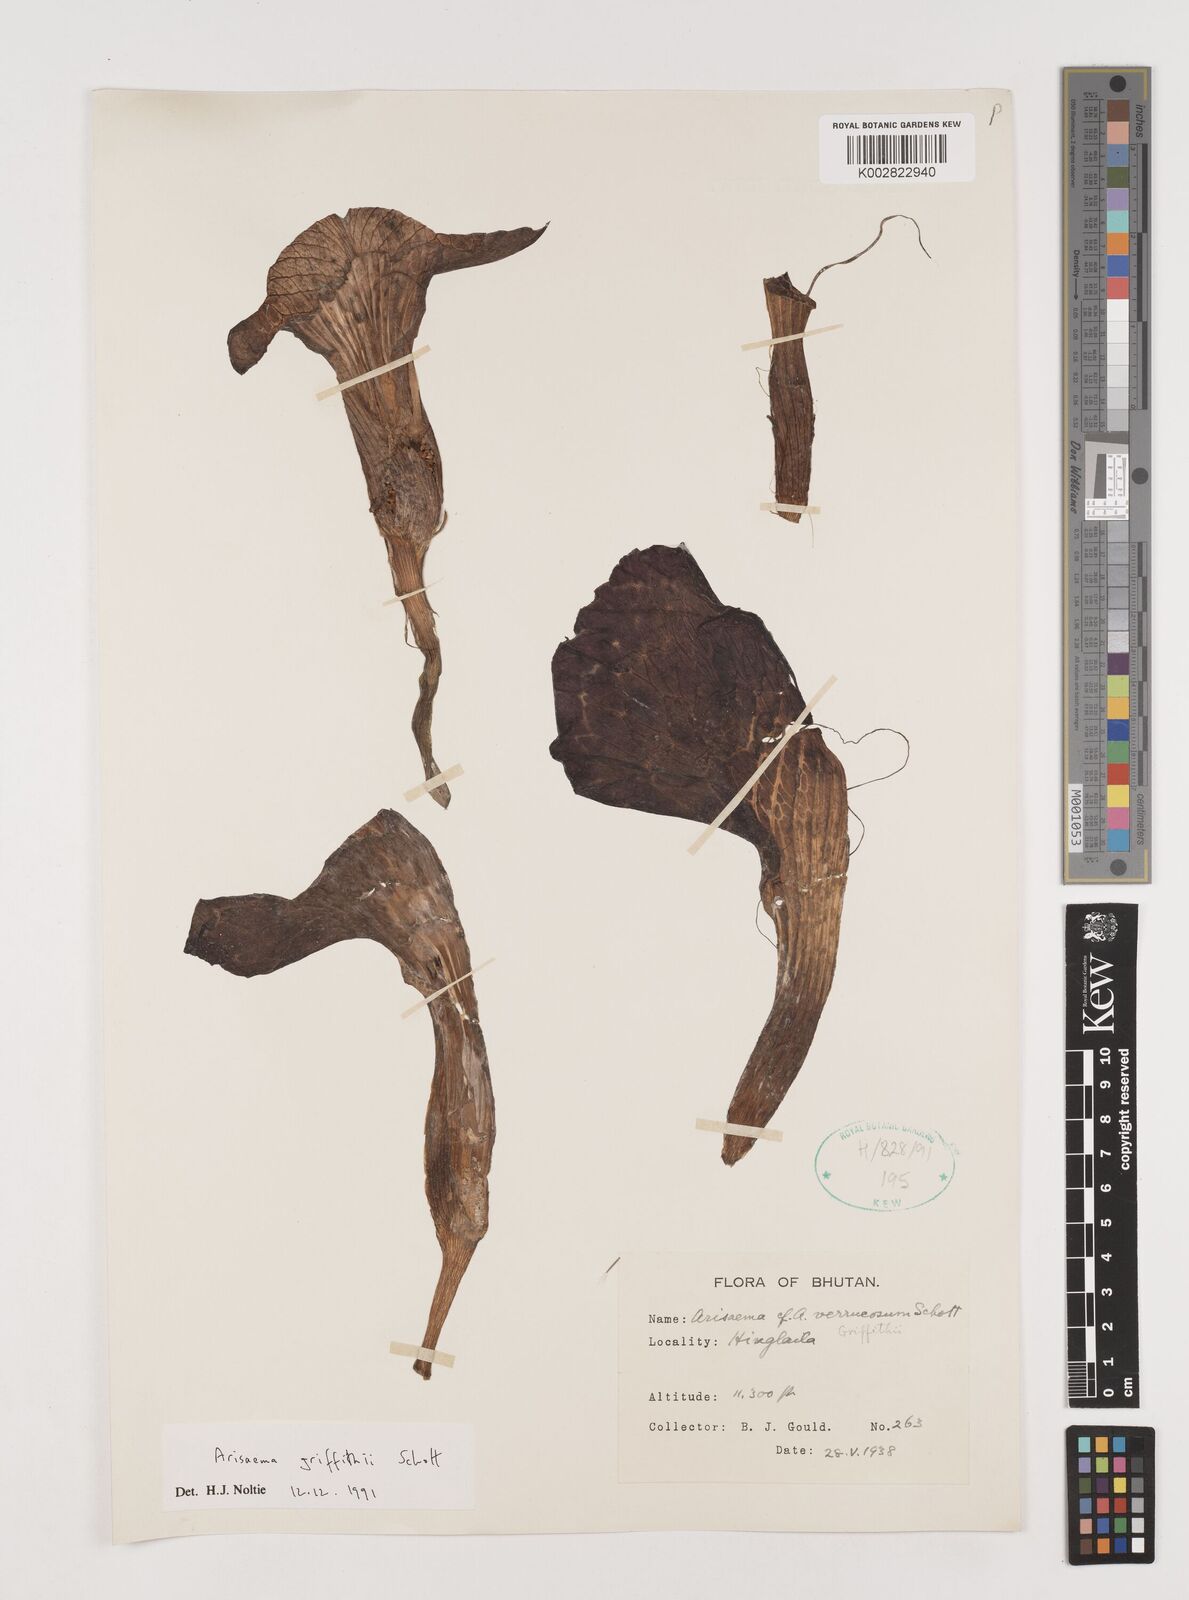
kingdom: Plantae
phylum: Tracheophyta
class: Liliopsida
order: Alismatales
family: Araceae
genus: Arisaema
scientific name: Arisaema griffithii
